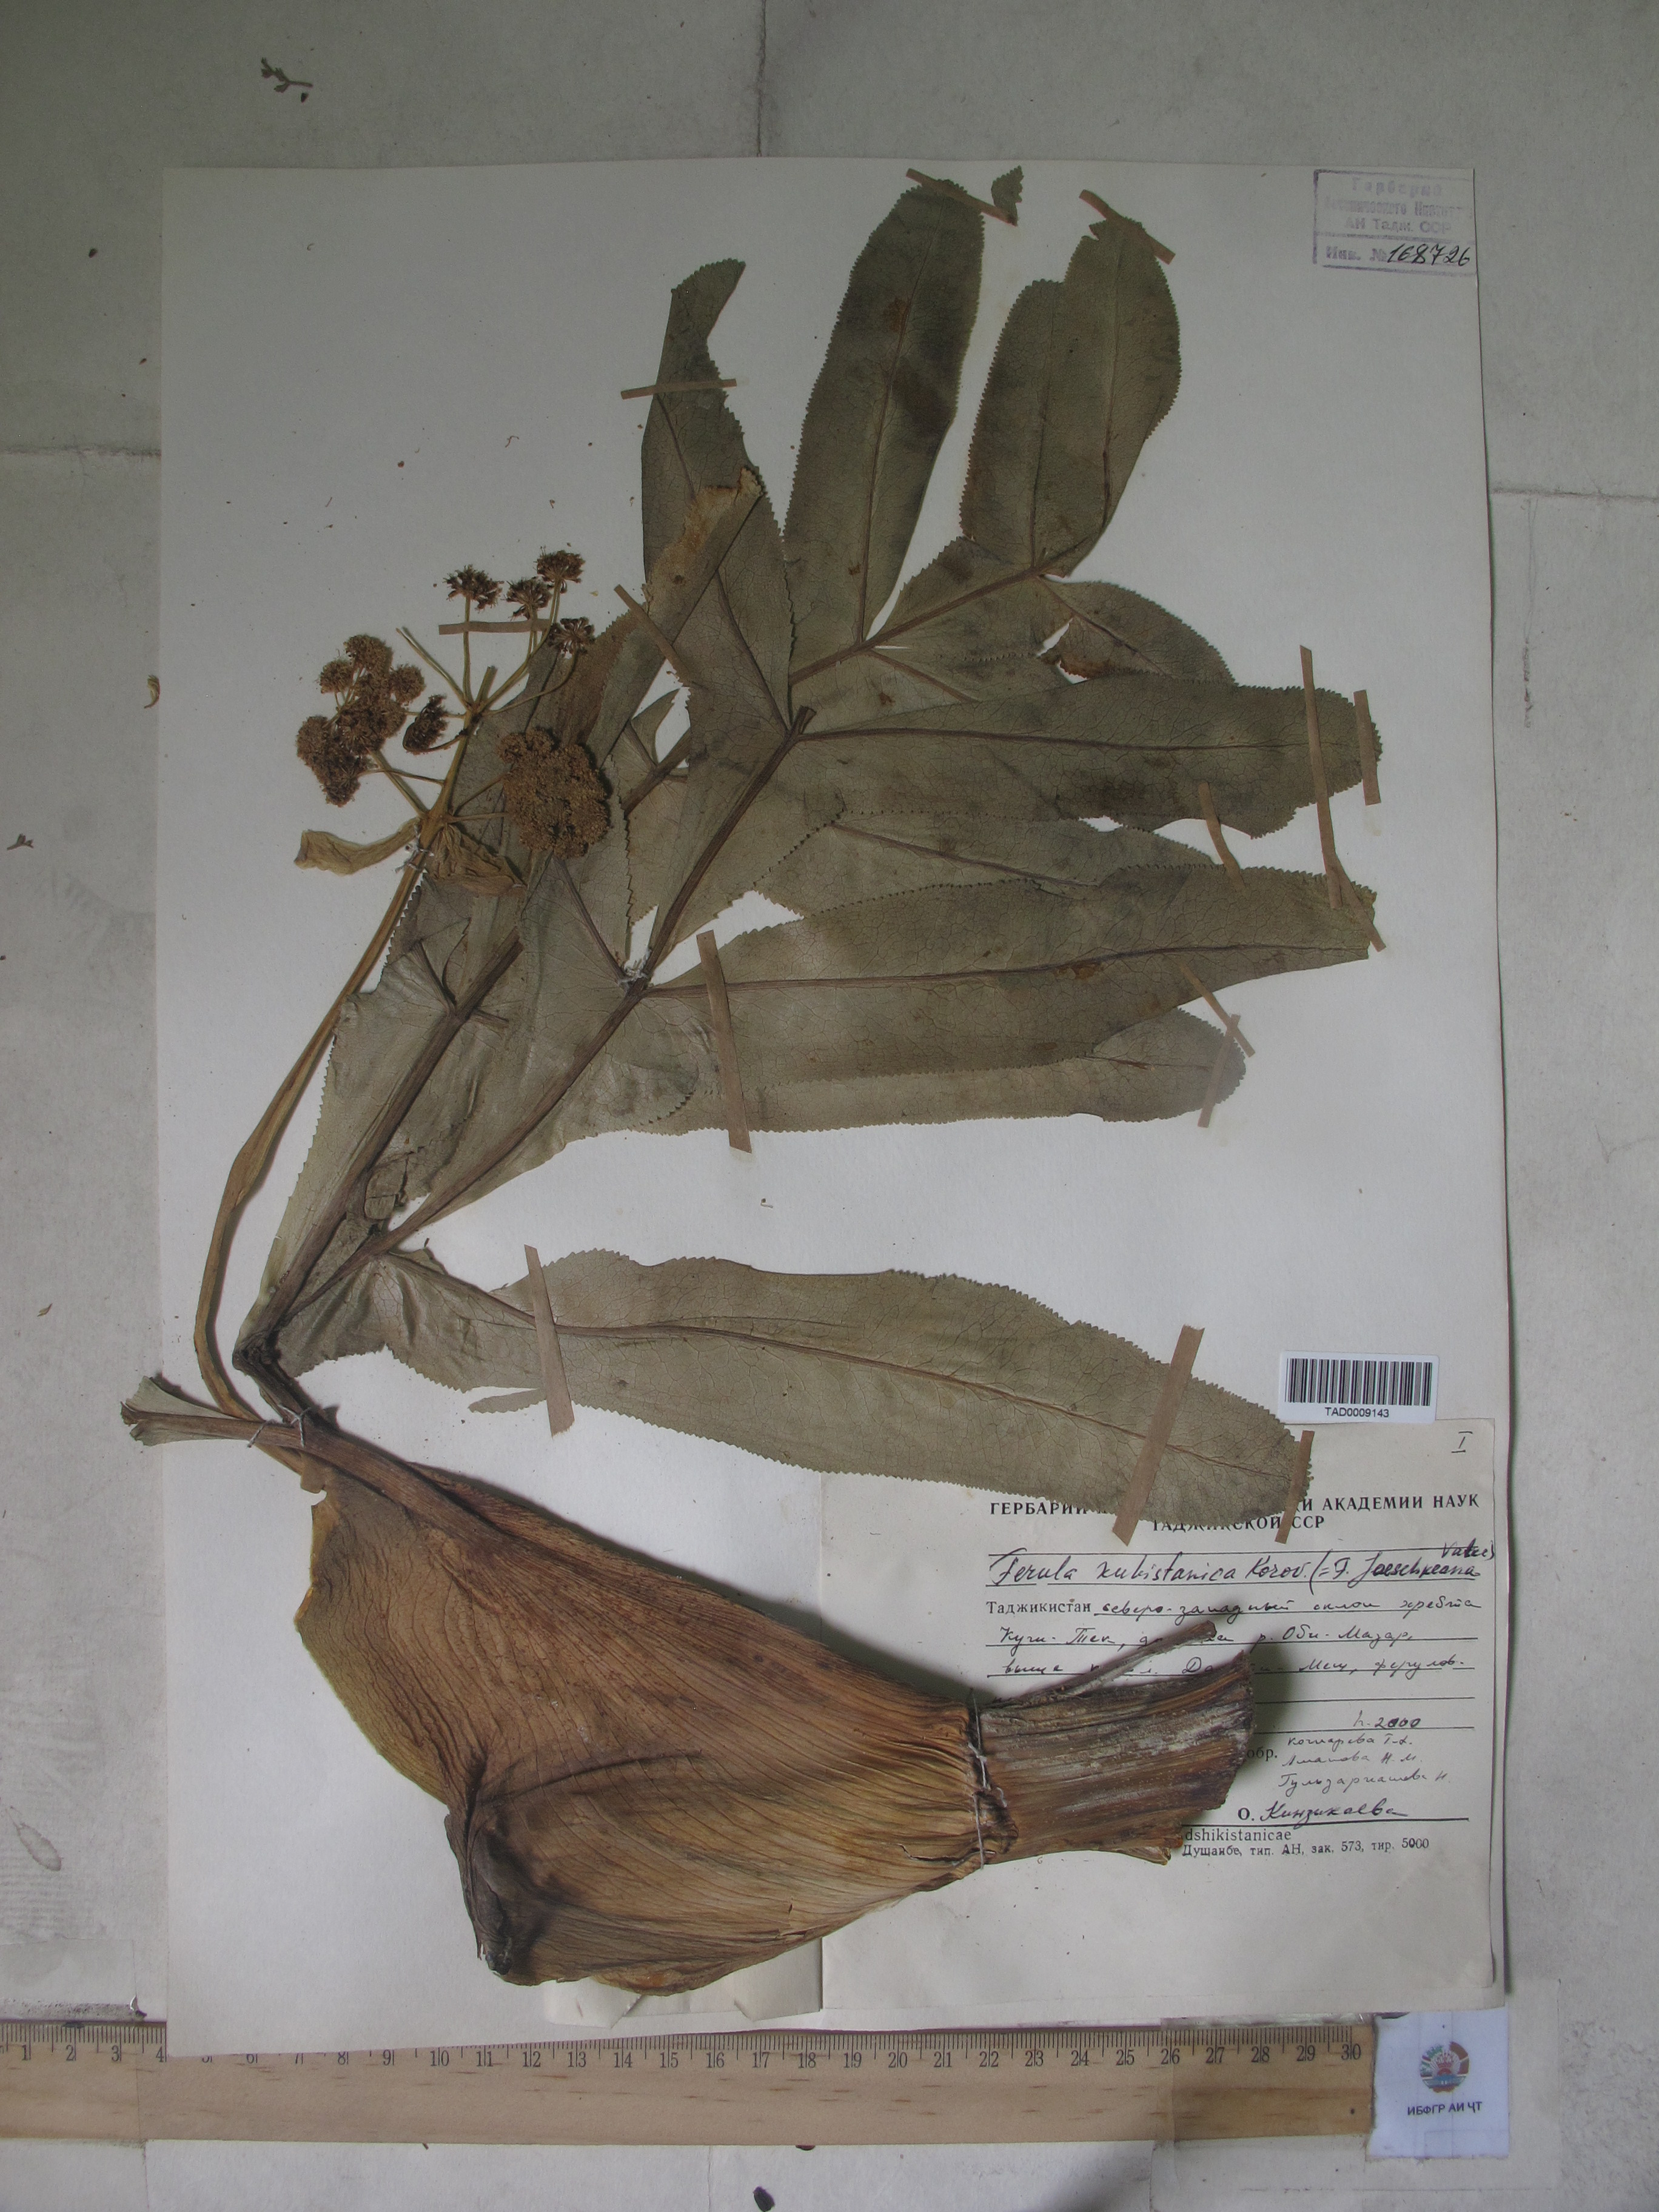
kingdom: Plantae
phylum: Tracheophyta
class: Magnoliopsida
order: Apiales
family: Apiaceae
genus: Ferula
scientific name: Ferula kuhistanica
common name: Kamol
